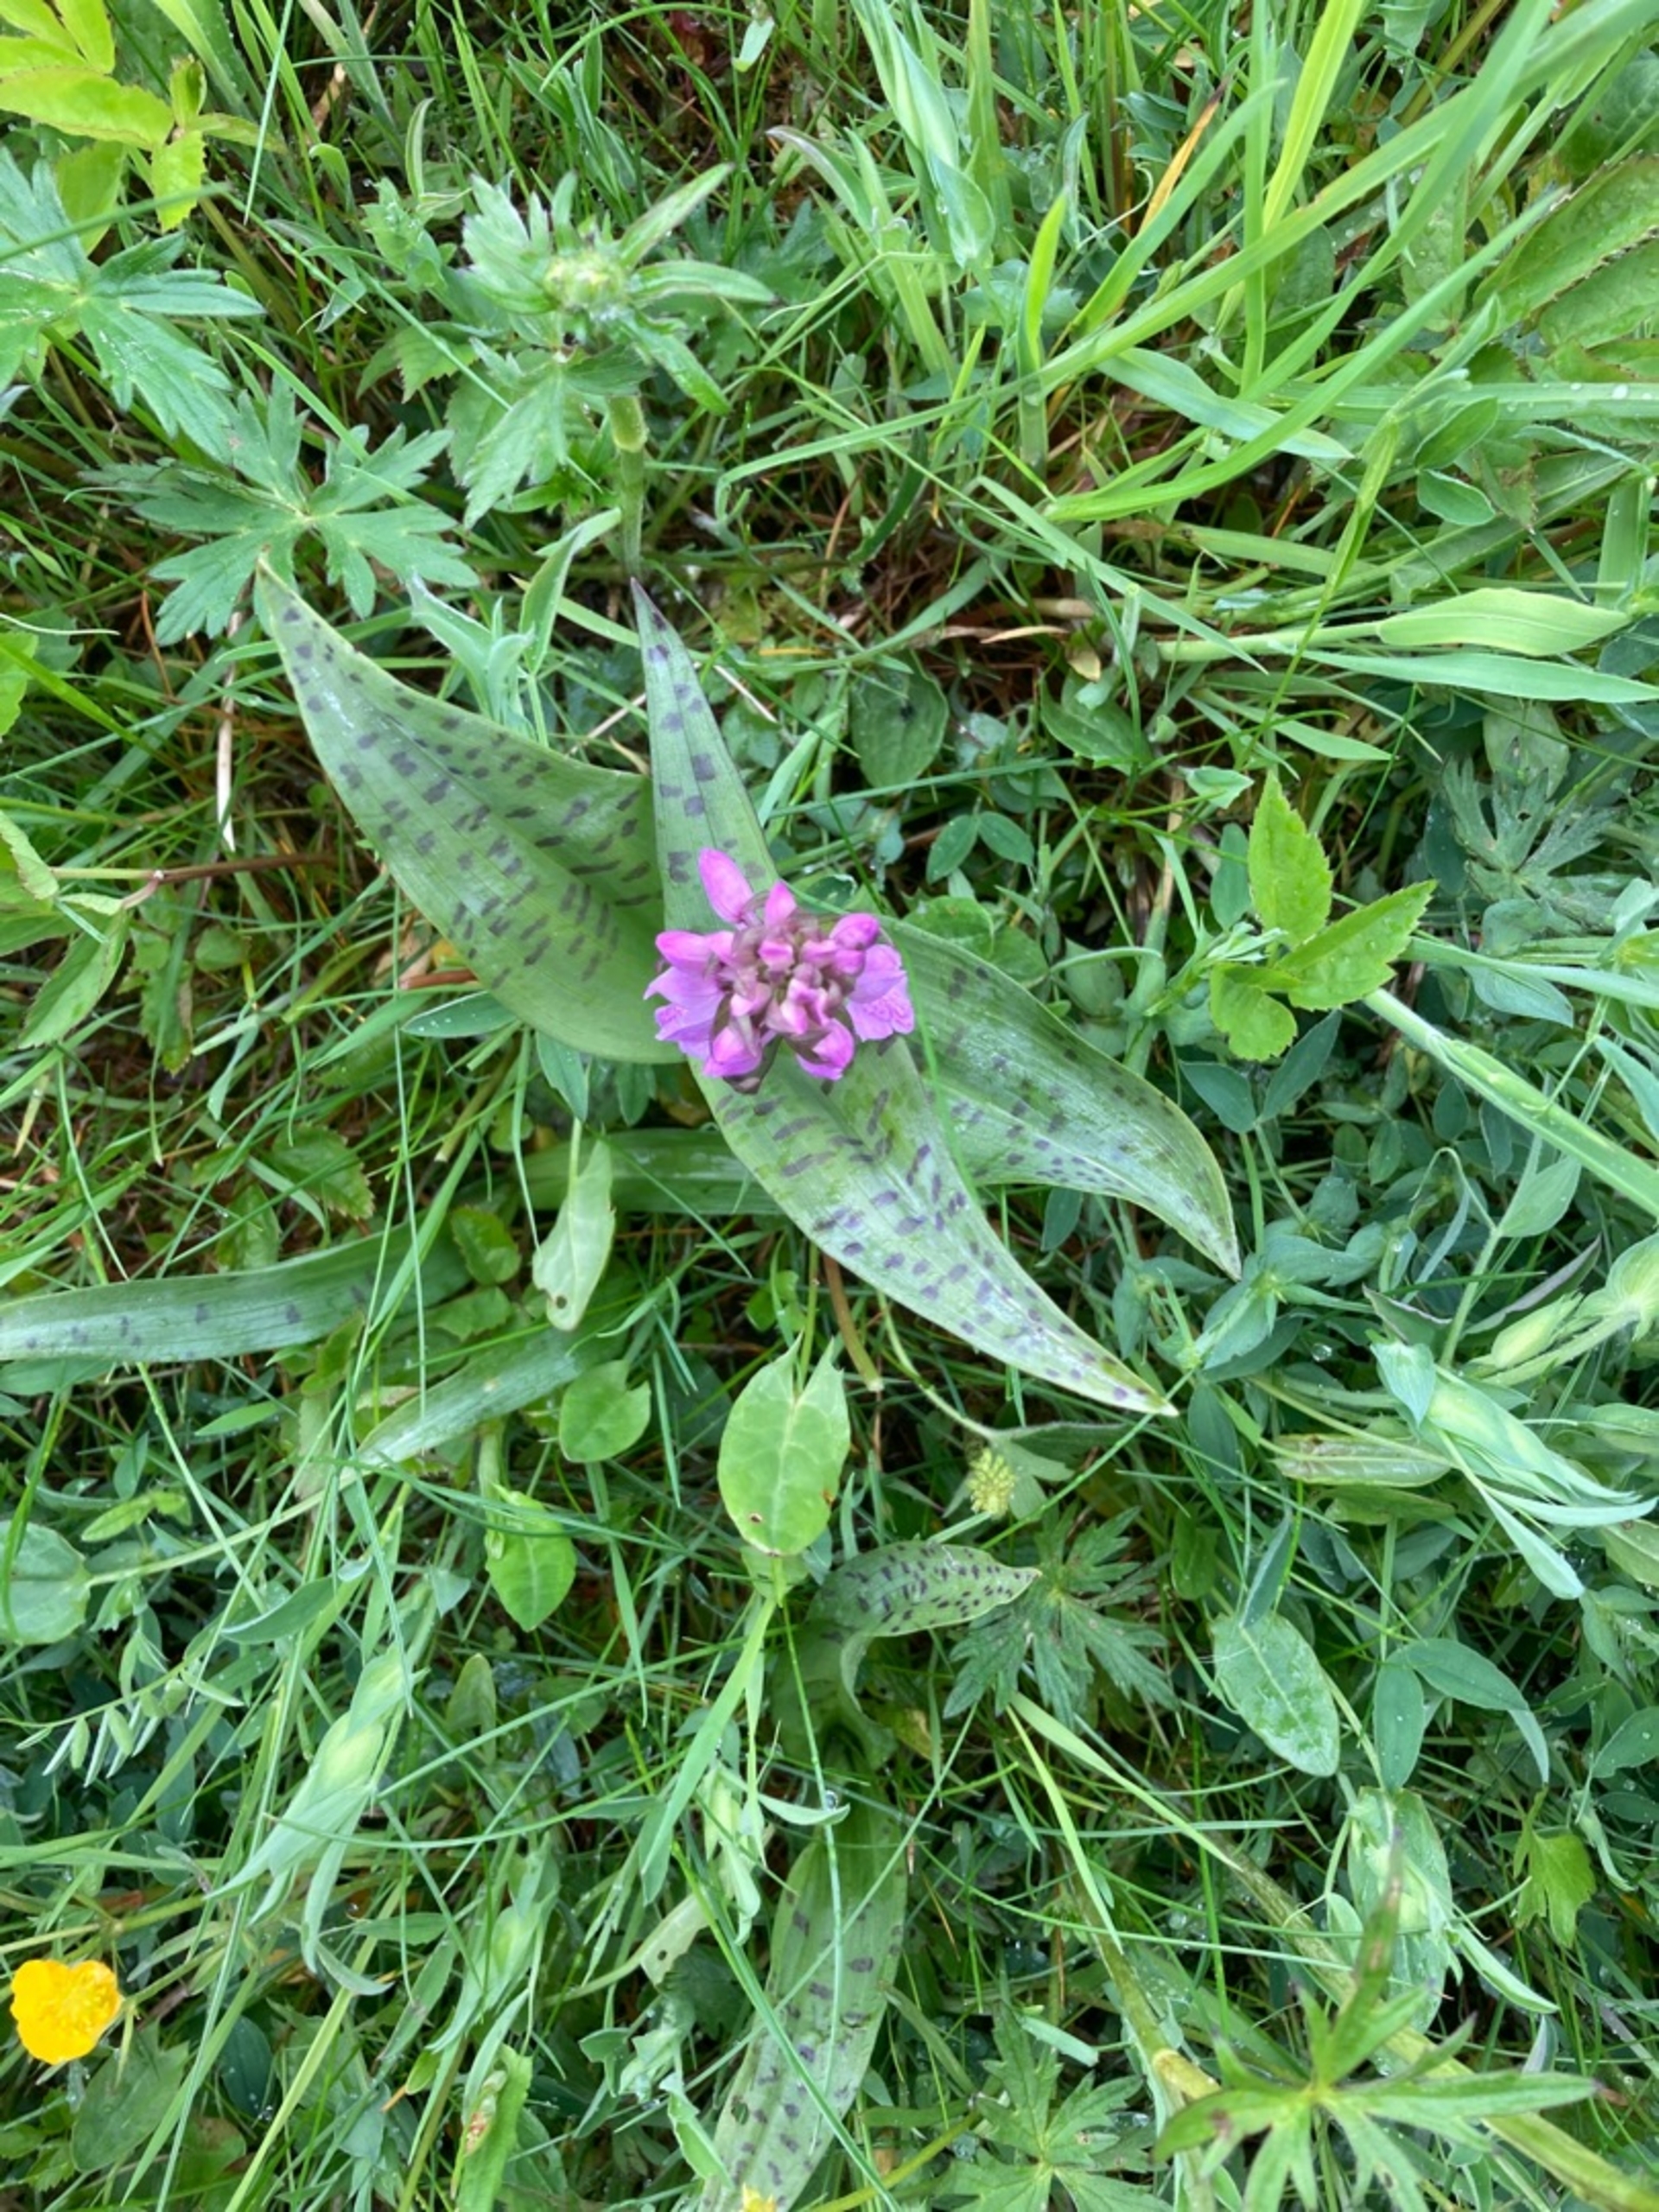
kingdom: Plantae
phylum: Tracheophyta
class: Liliopsida
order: Asparagales
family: Orchidaceae
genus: Dactylorhiza
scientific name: Dactylorhiza majalis
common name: Maj-gøgeurt
